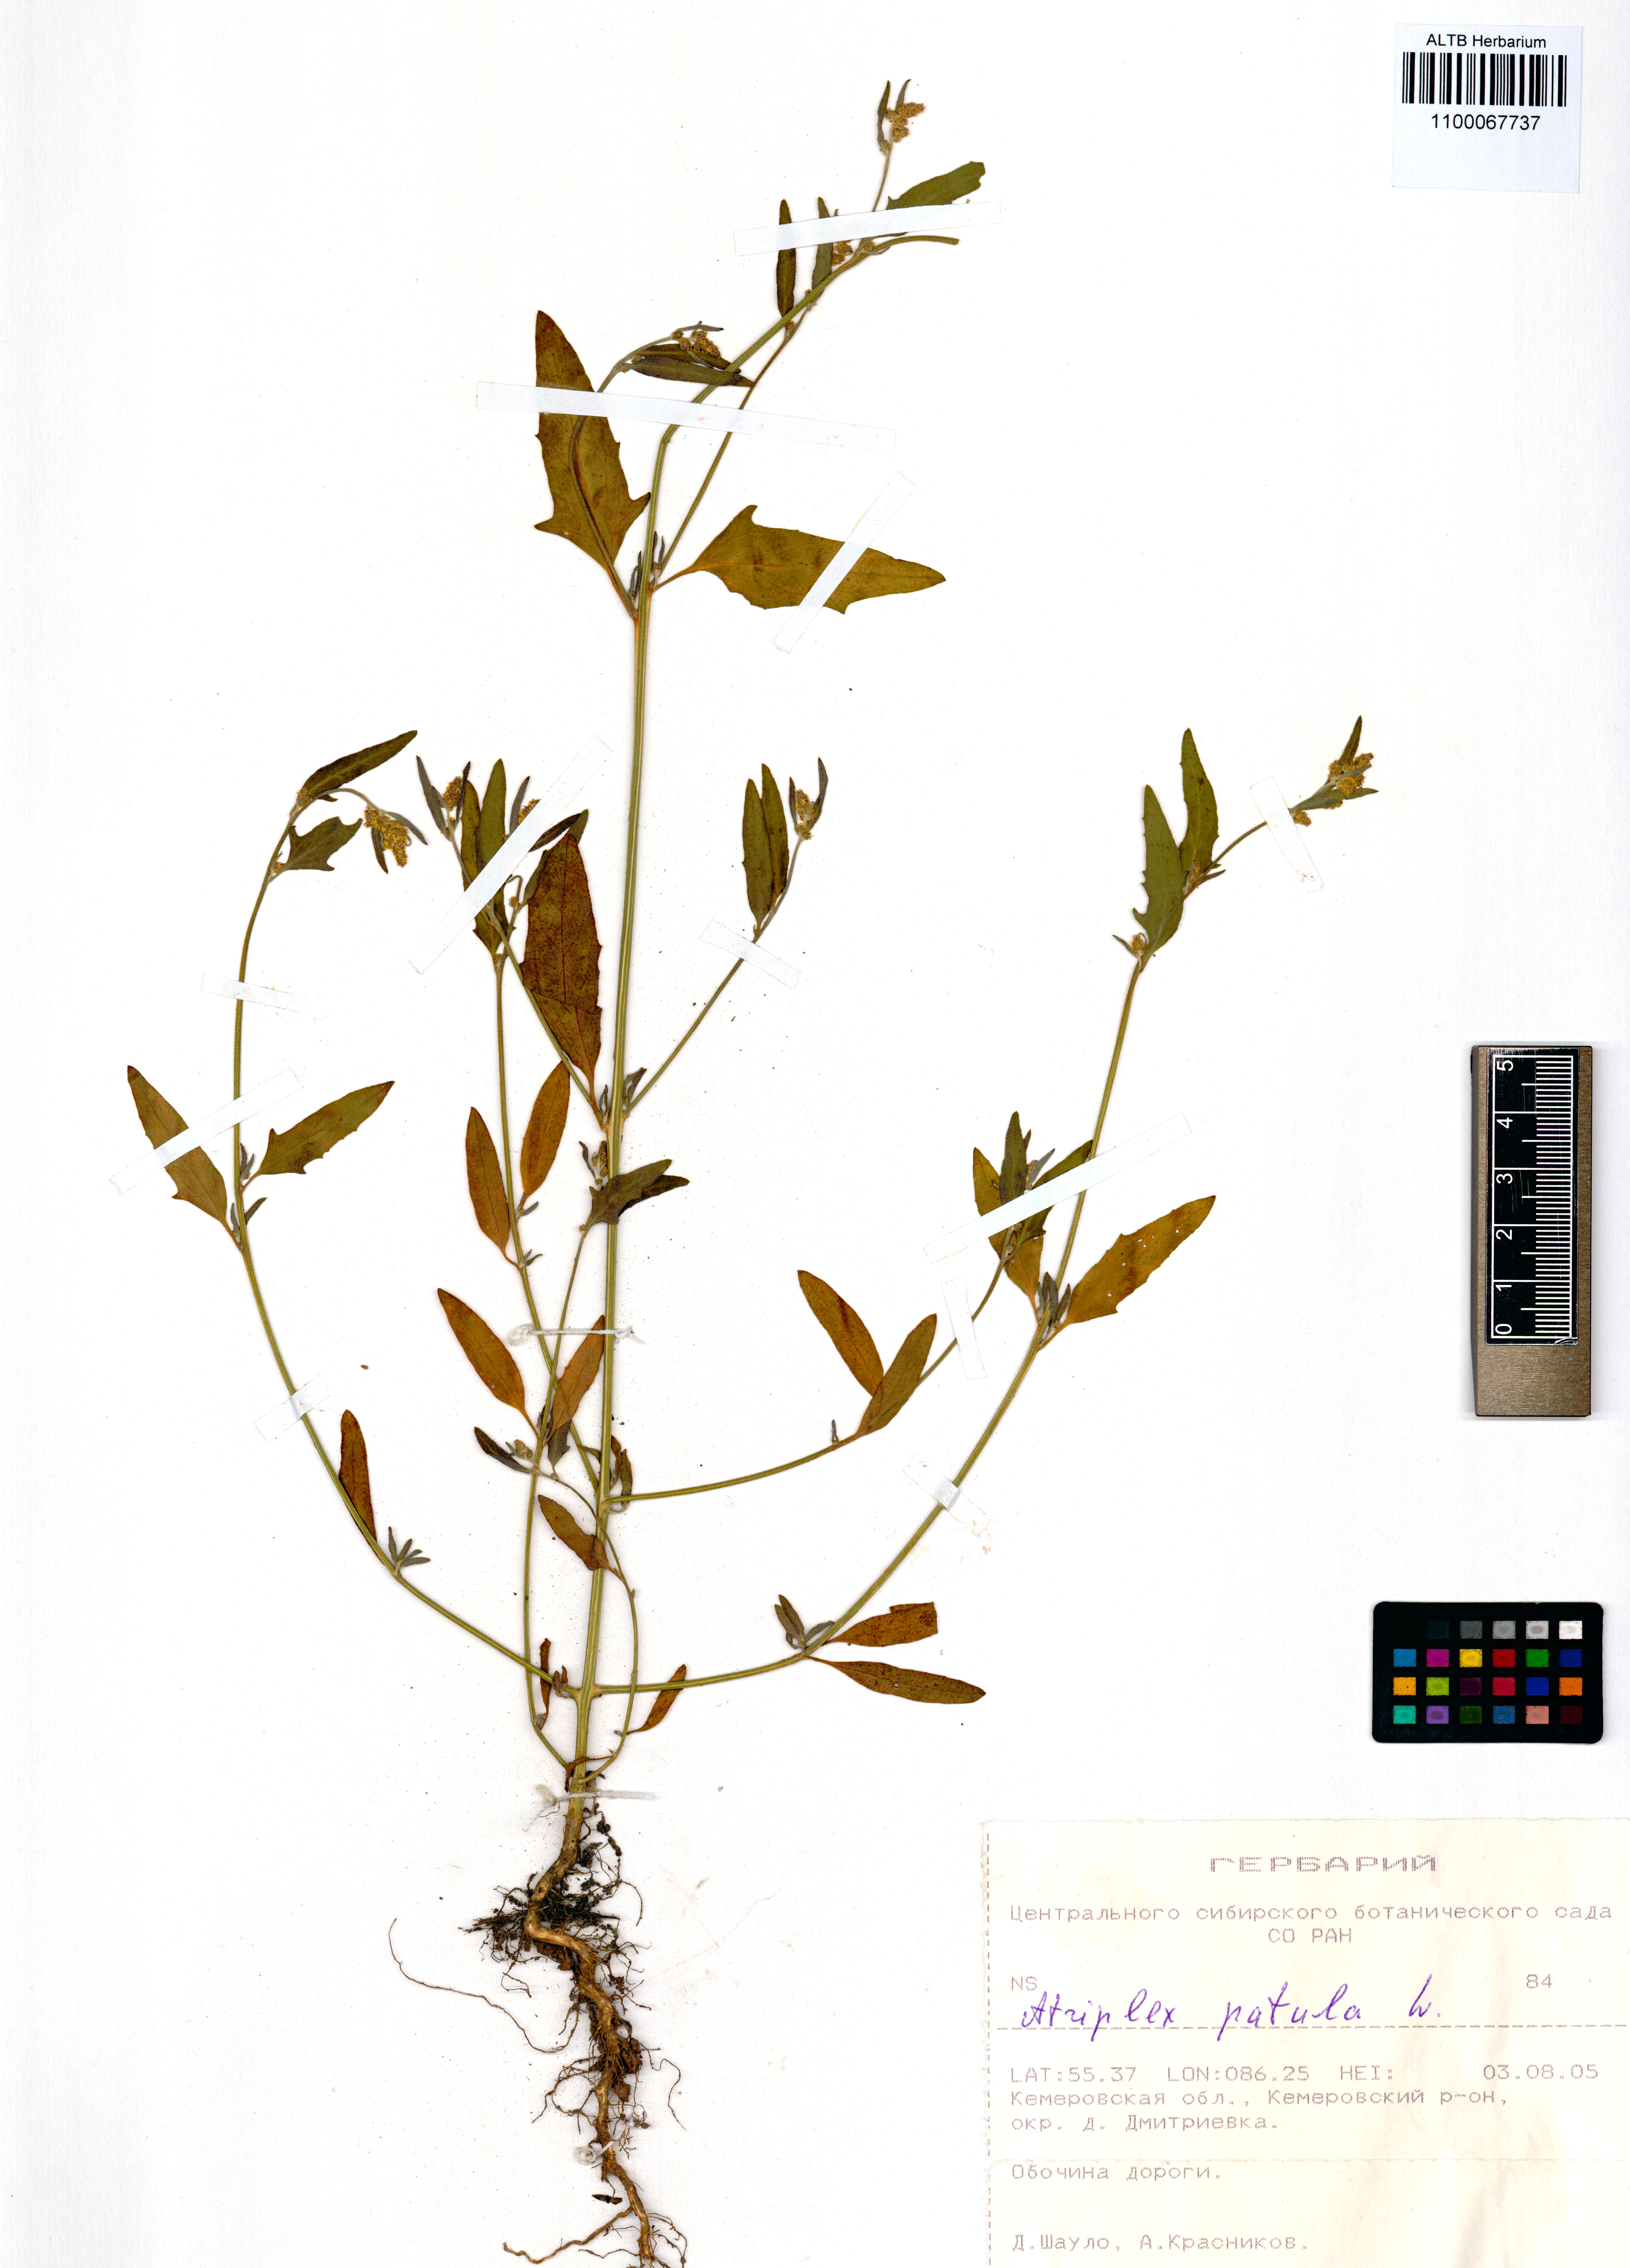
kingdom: Plantae
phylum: Tracheophyta
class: Magnoliopsida
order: Caryophyllales
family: Amaranthaceae
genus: Atriplex
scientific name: Atriplex patula
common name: Common orache
